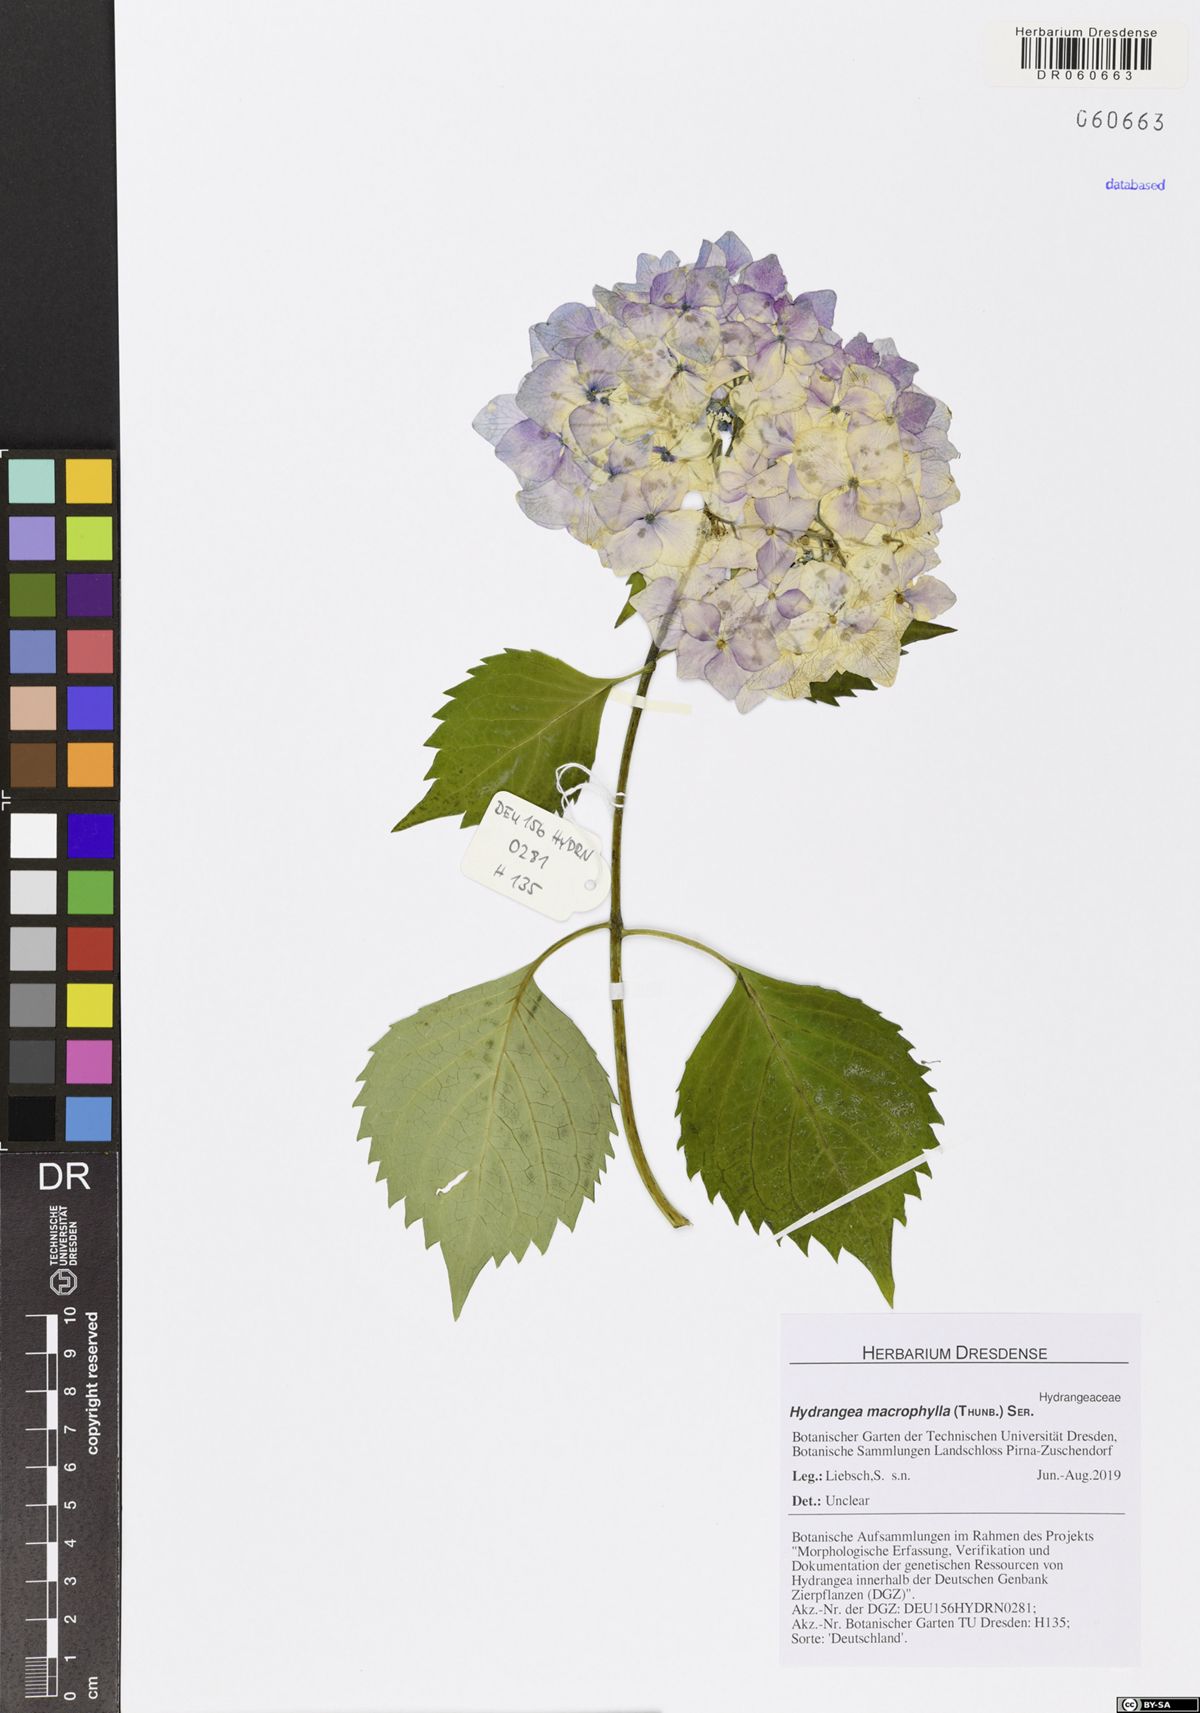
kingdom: Plantae
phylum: Tracheophyta
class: Magnoliopsida
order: Cornales
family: Hydrangeaceae
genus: Hydrangea
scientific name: Hydrangea macrophylla
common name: Hydrangea
